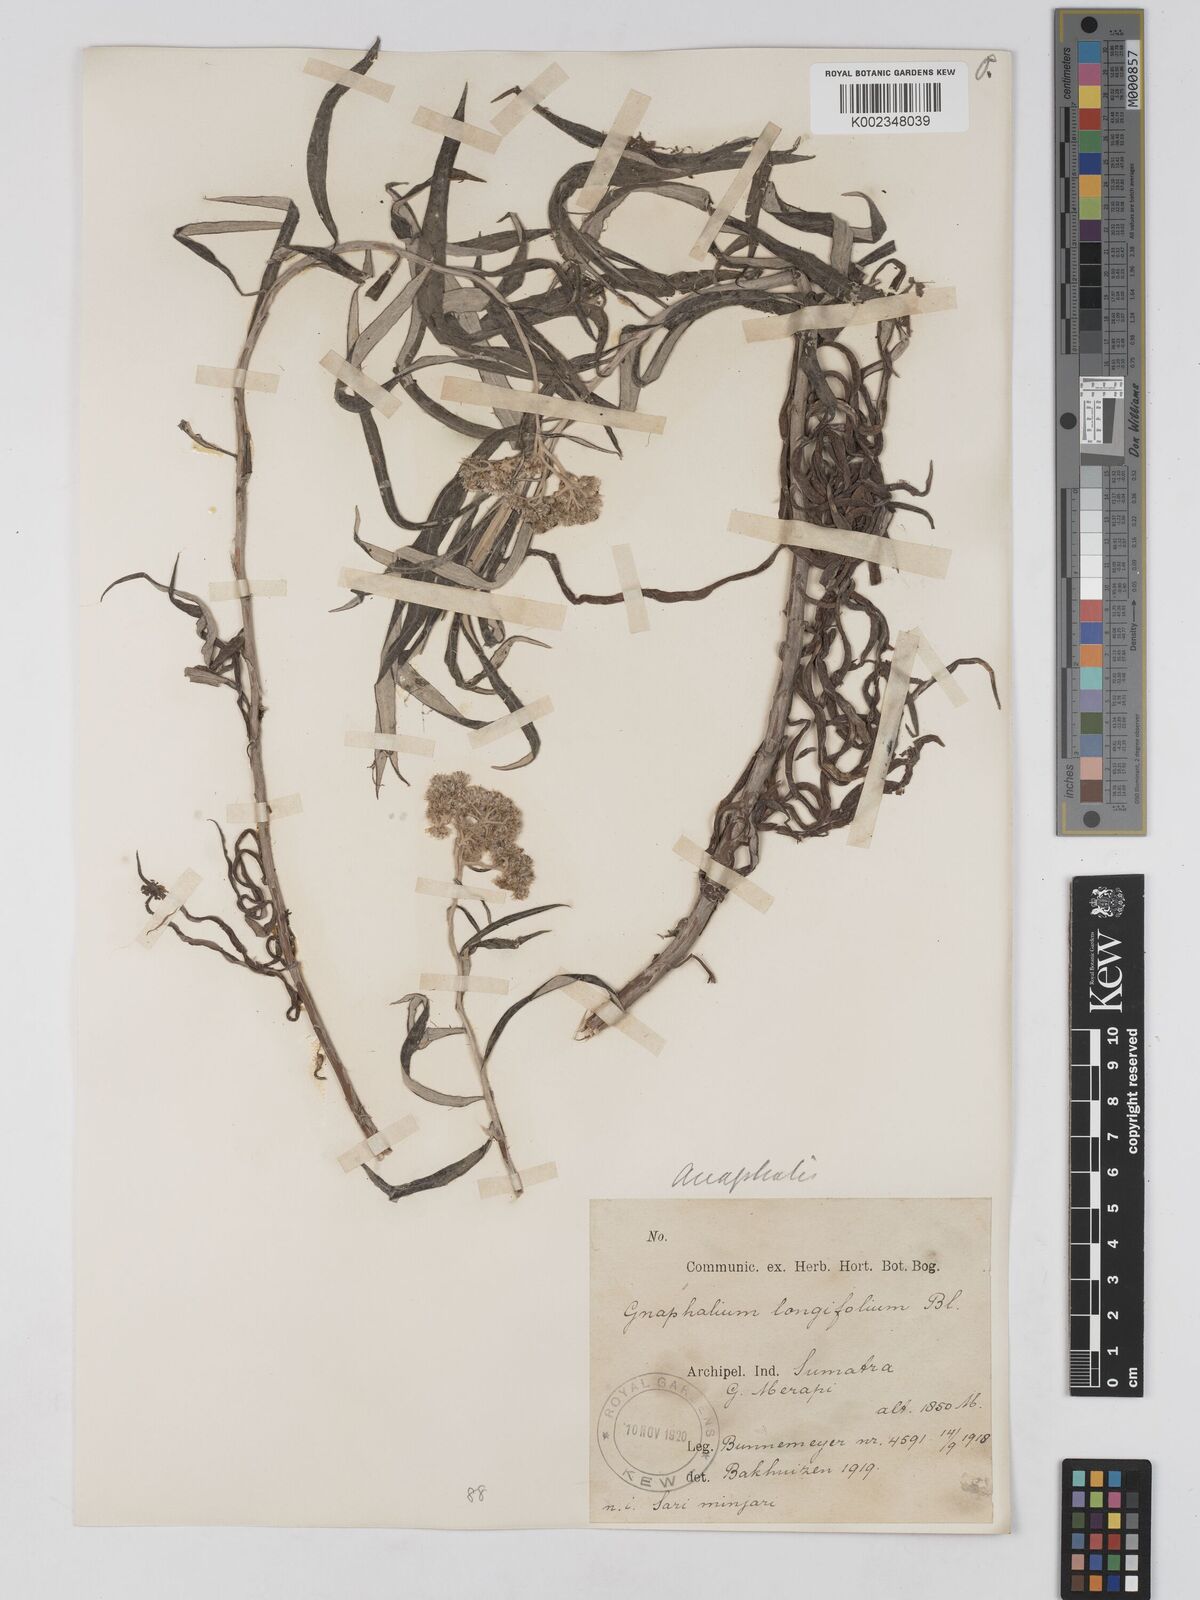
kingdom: Plantae
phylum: Tracheophyta
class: Magnoliopsida
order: Asterales
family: Asteraceae
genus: Anaphalis
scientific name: Anaphalis longifolia
